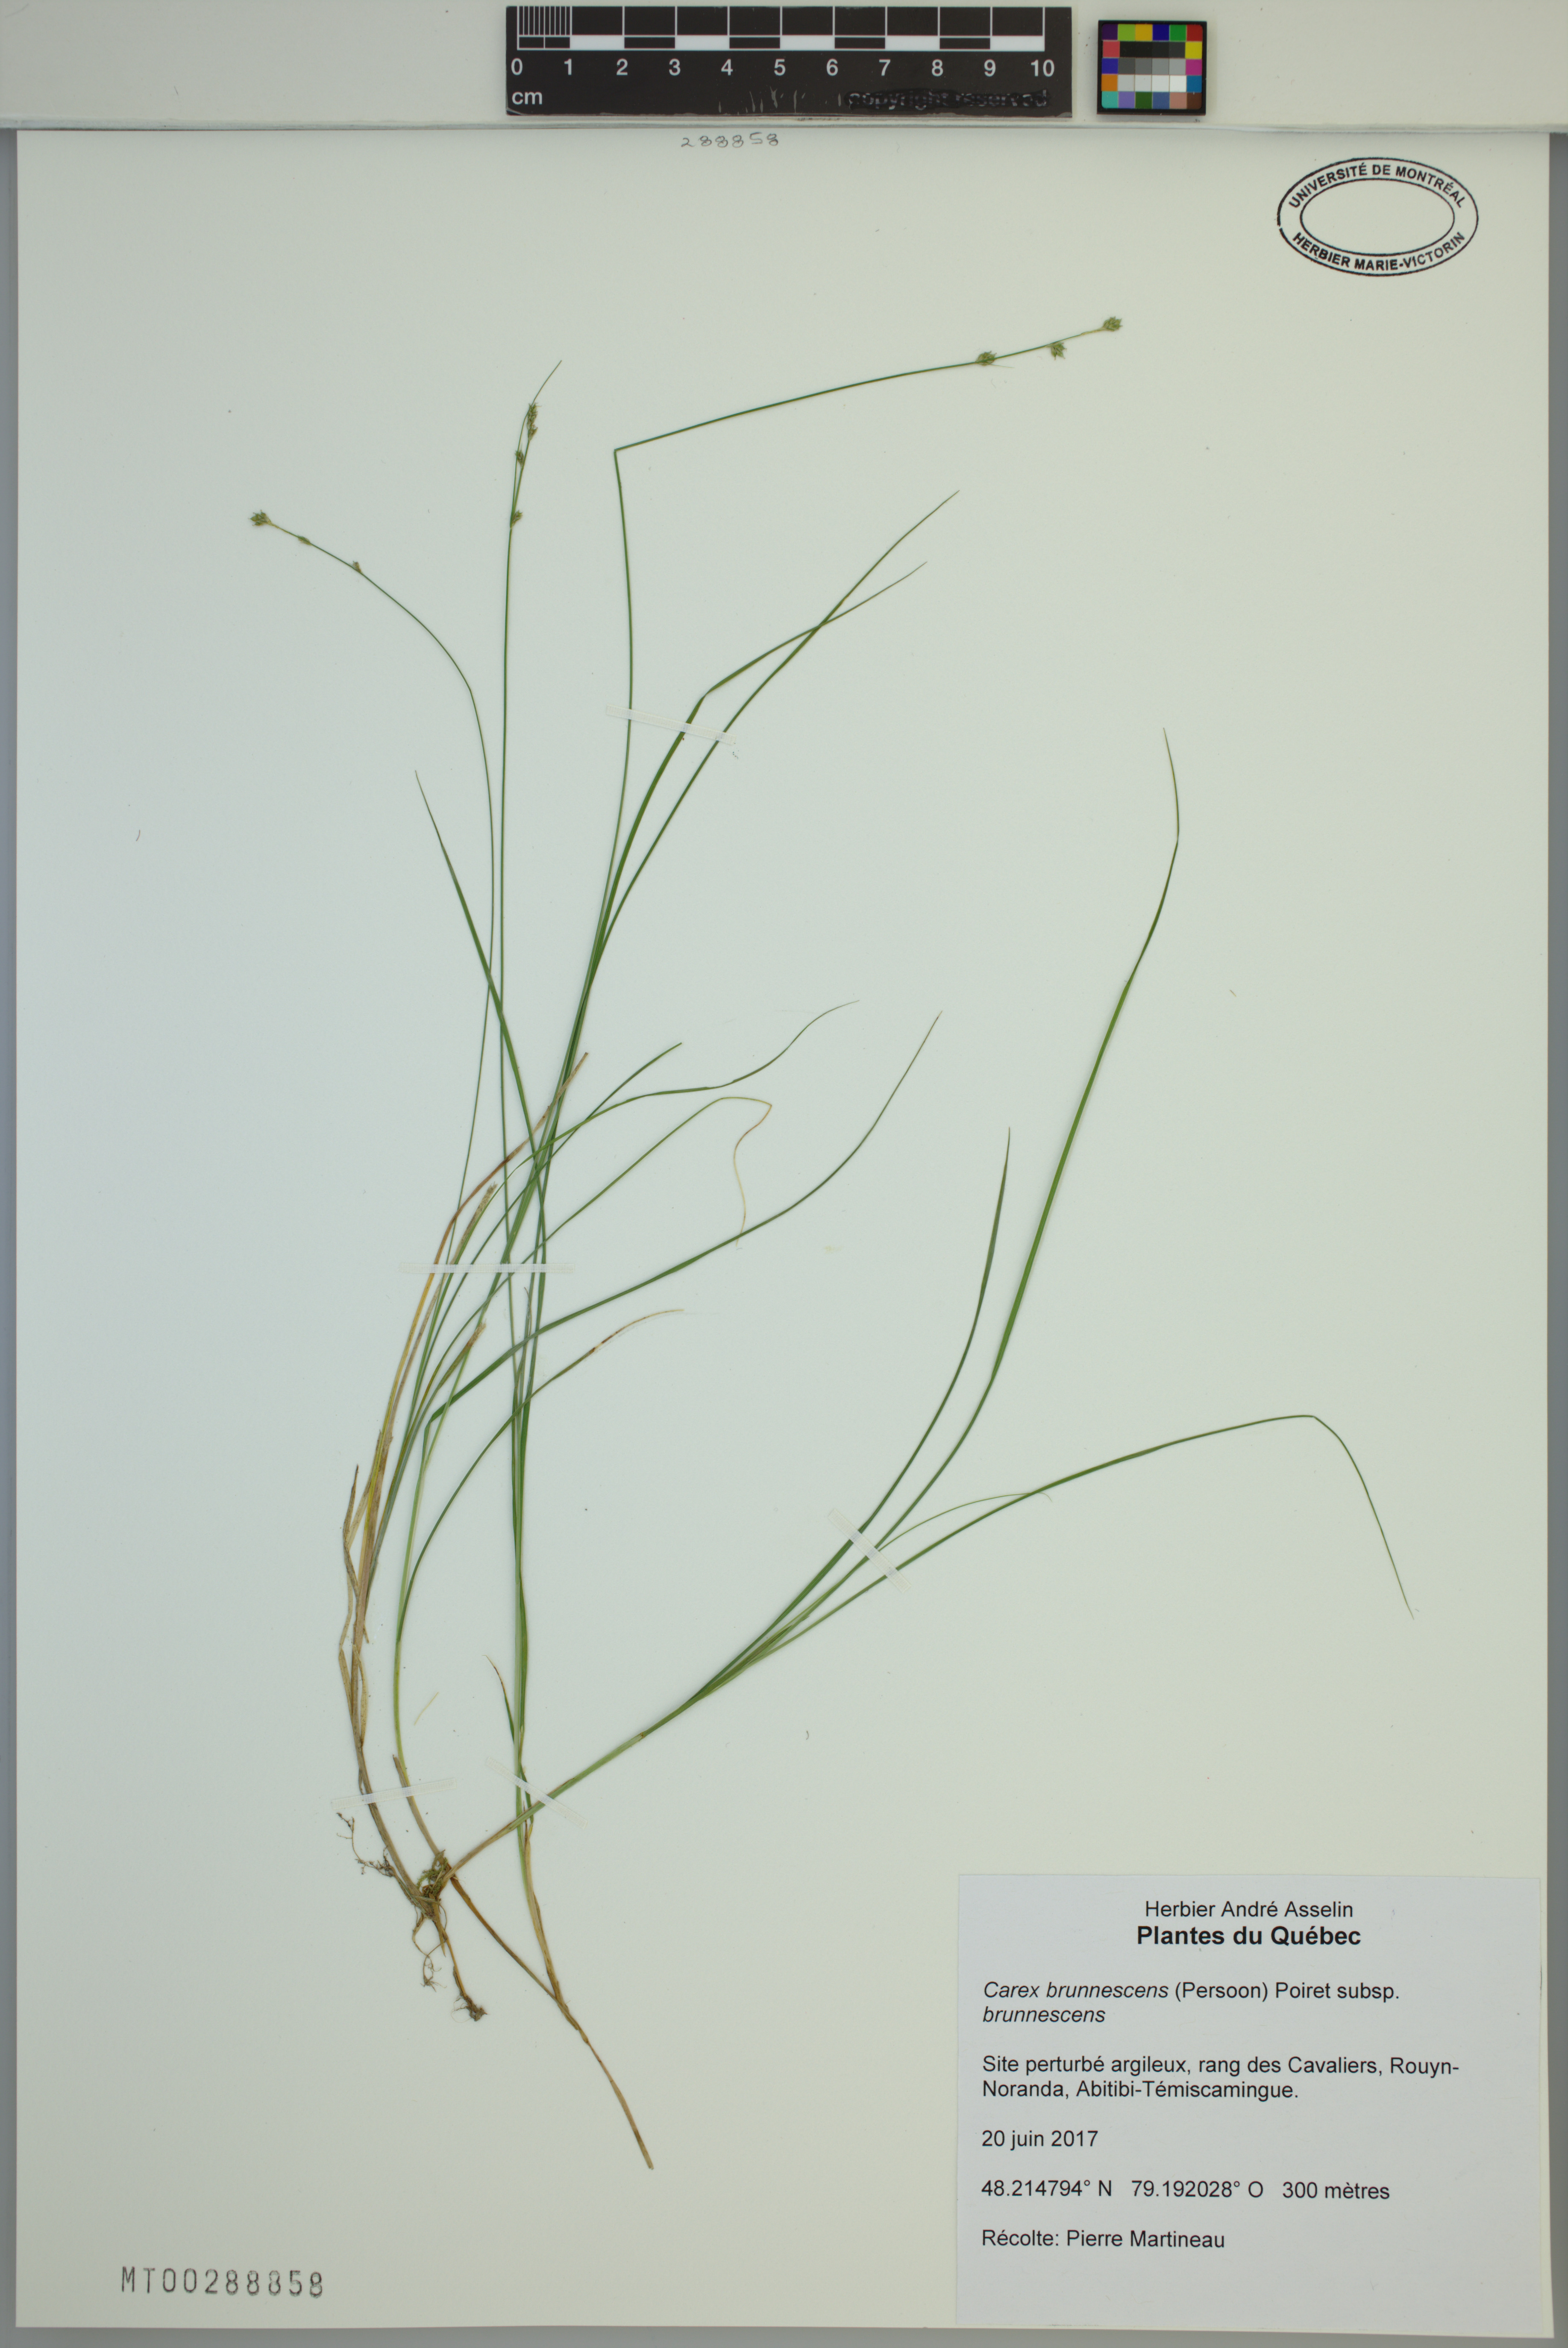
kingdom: Plantae
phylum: Tracheophyta
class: Liliopsida
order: Poales
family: Cyperaceae
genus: Carex
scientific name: Carex brunnescens
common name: Brown sedge
